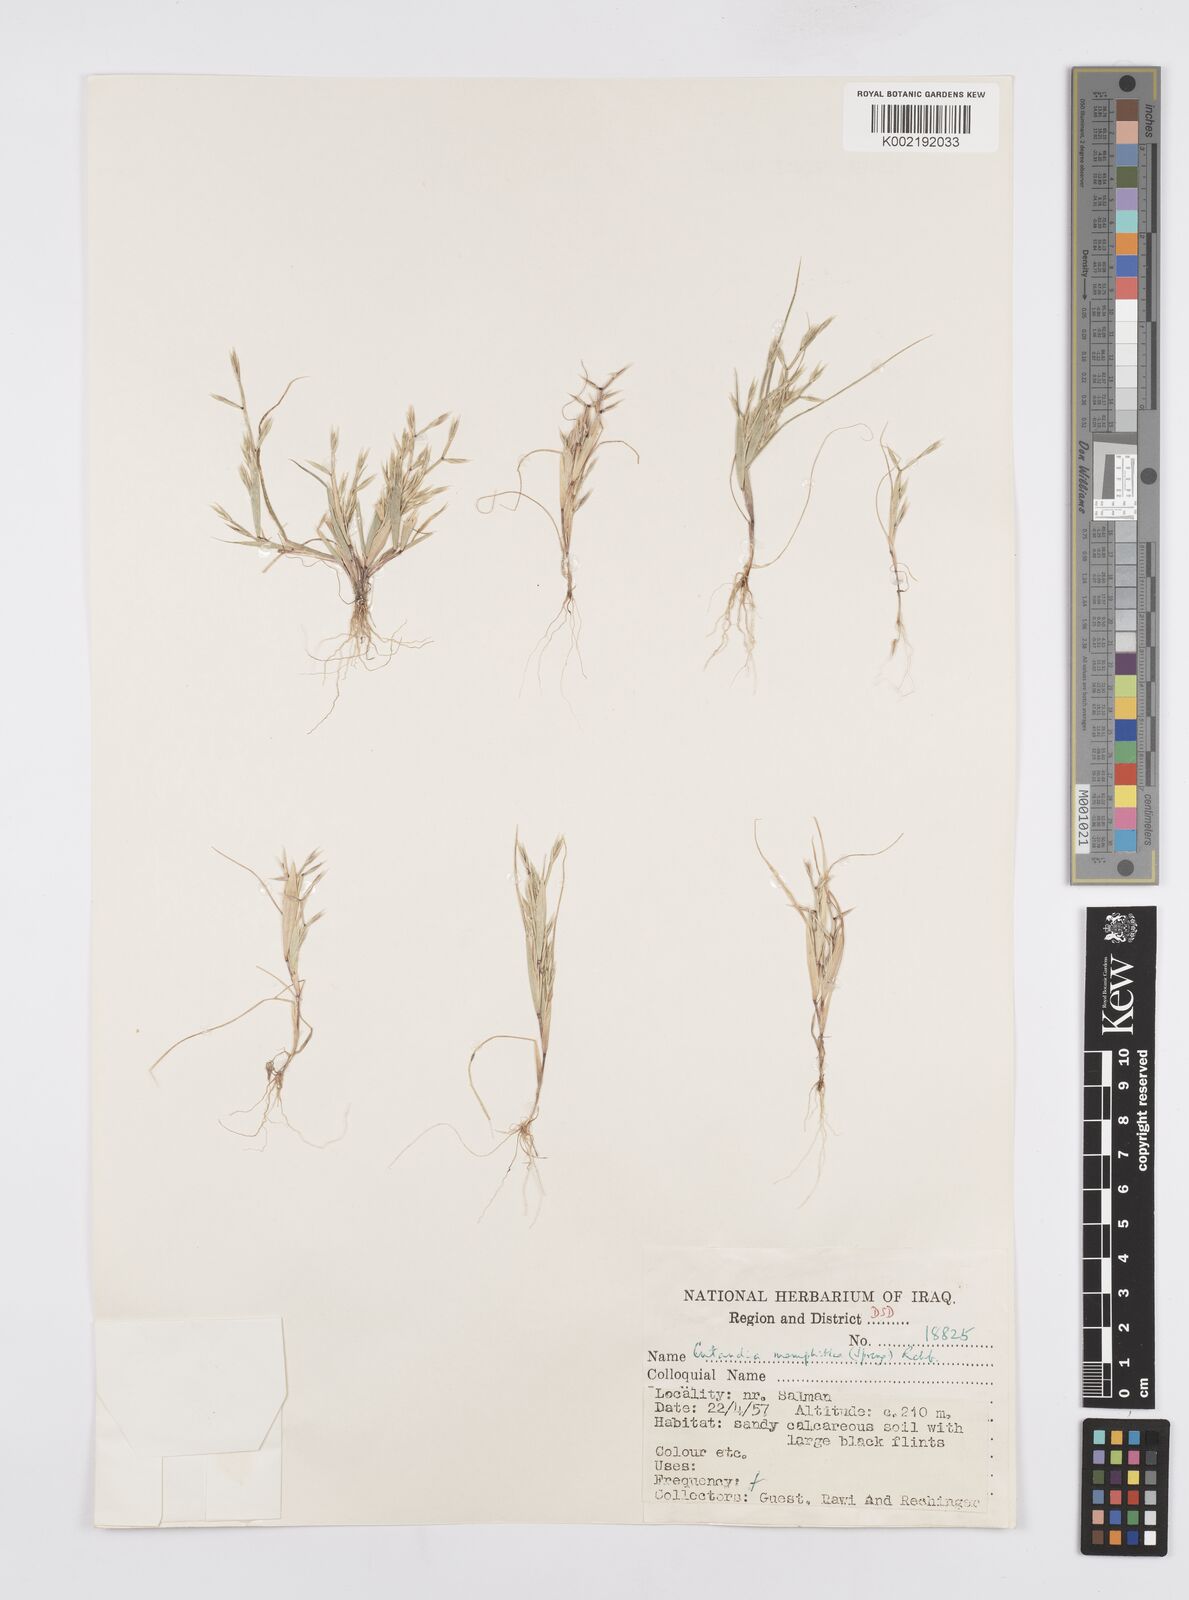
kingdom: Plantae
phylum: Tracheophyta
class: Liliopsida
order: Poales
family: Poaceae
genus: Cutandia
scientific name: Cutandia memphitica
